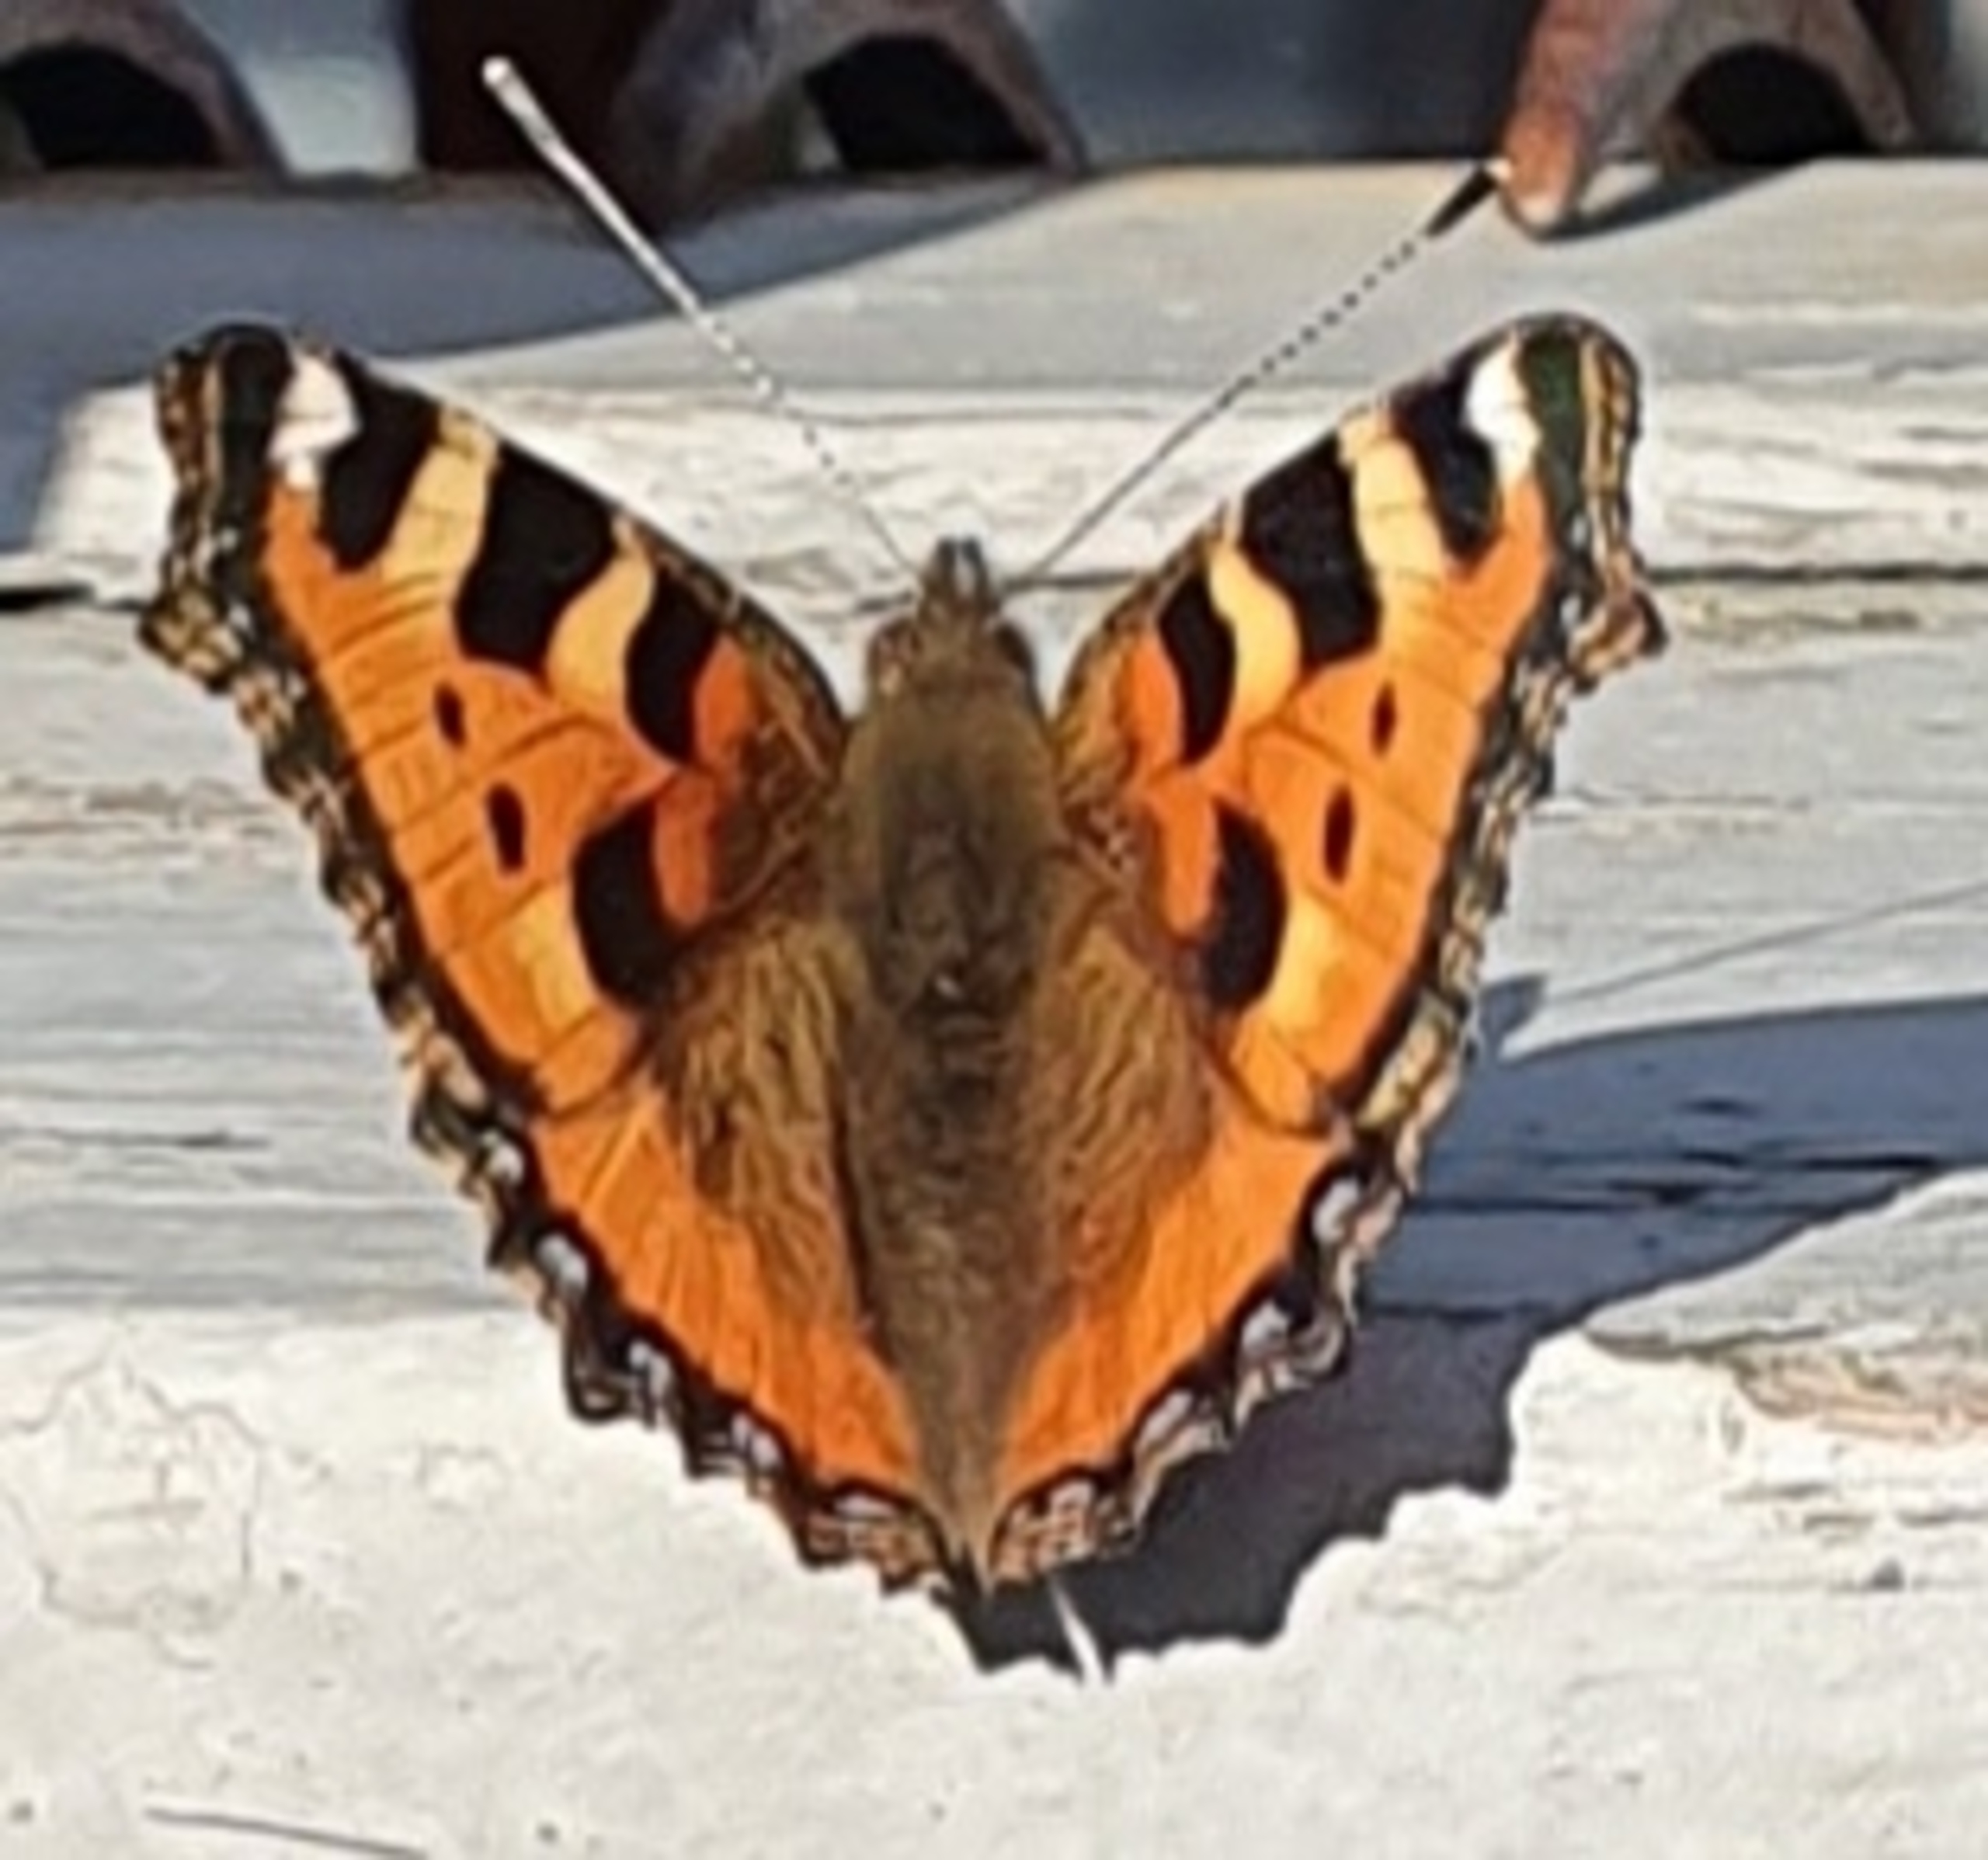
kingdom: Animalia
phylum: Arthropoda
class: Insecta
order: Lepidoptera
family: Nymphalidae
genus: Aglais
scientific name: Aglais urticae
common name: Nældens takvinge
